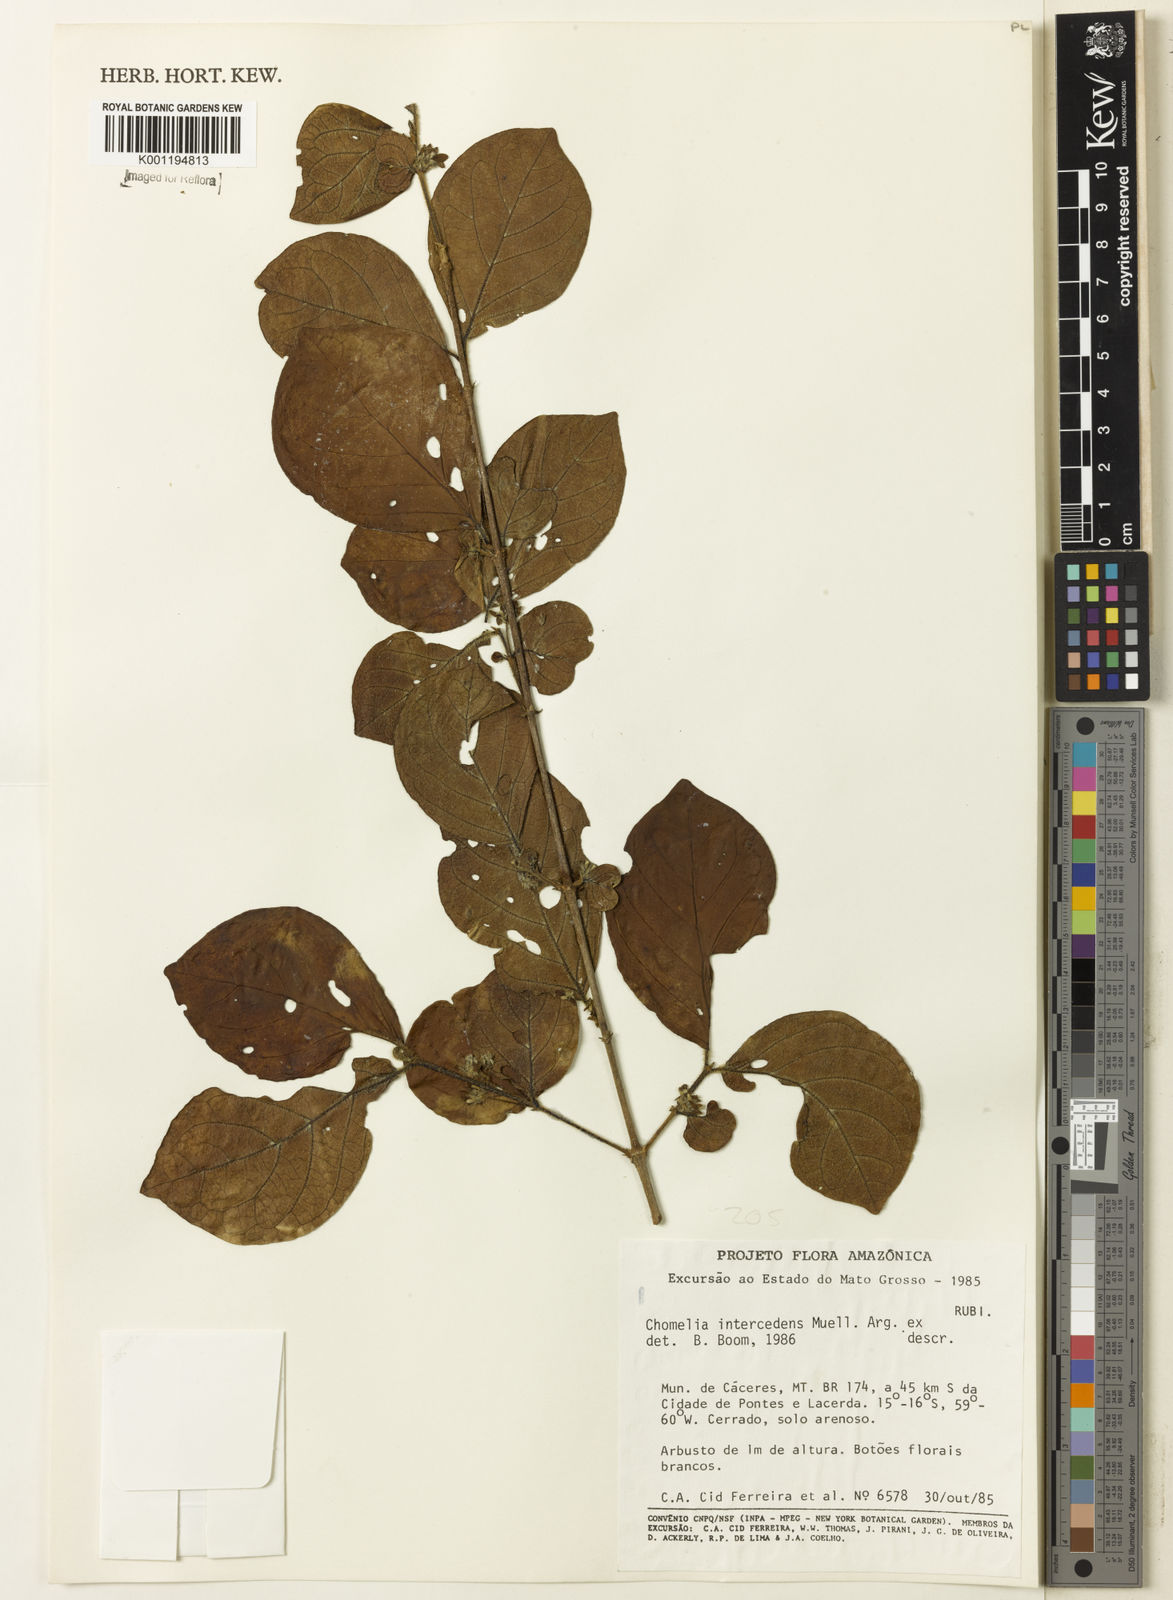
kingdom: Plantae
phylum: Tracheophyta
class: Magnoliopsida
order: Gentianales
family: Rubiaceae
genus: Chomelia
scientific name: Chomelia
